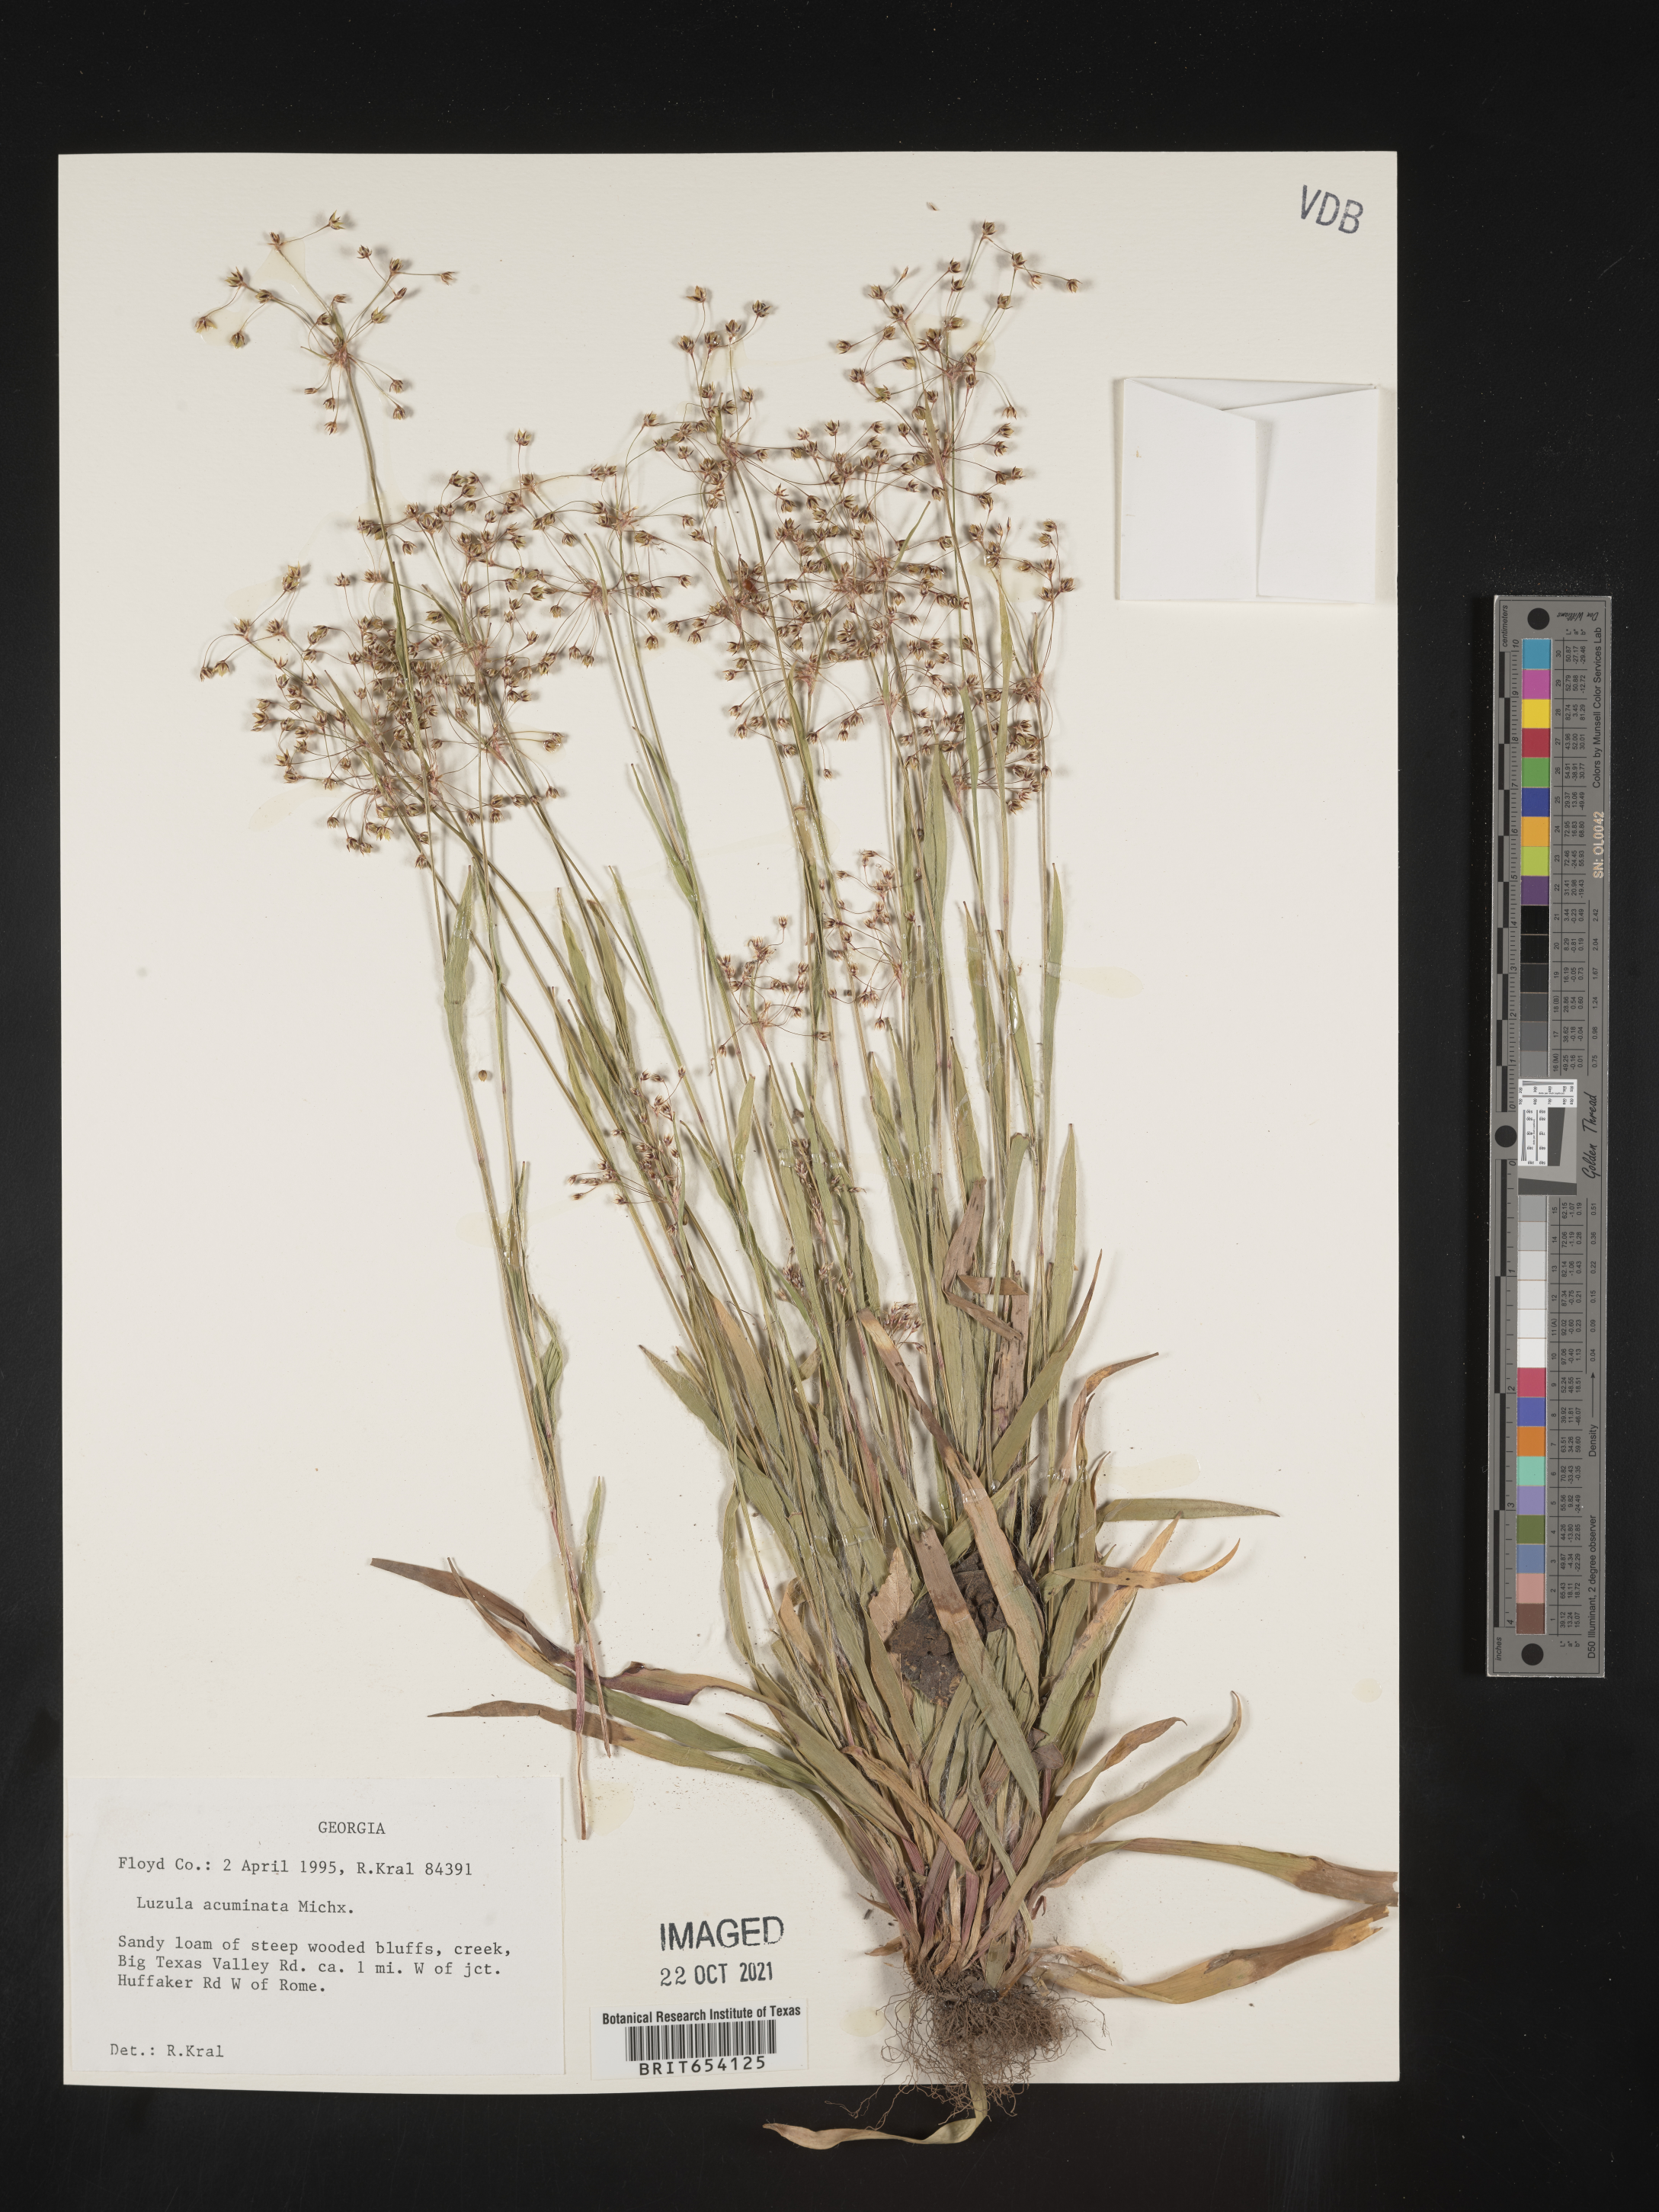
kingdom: Plantae
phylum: Tracheophyta
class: Liliopsida
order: Poales
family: Juncaceae
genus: Luzula
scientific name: Luzula acuminata
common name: Hairy woodrush
